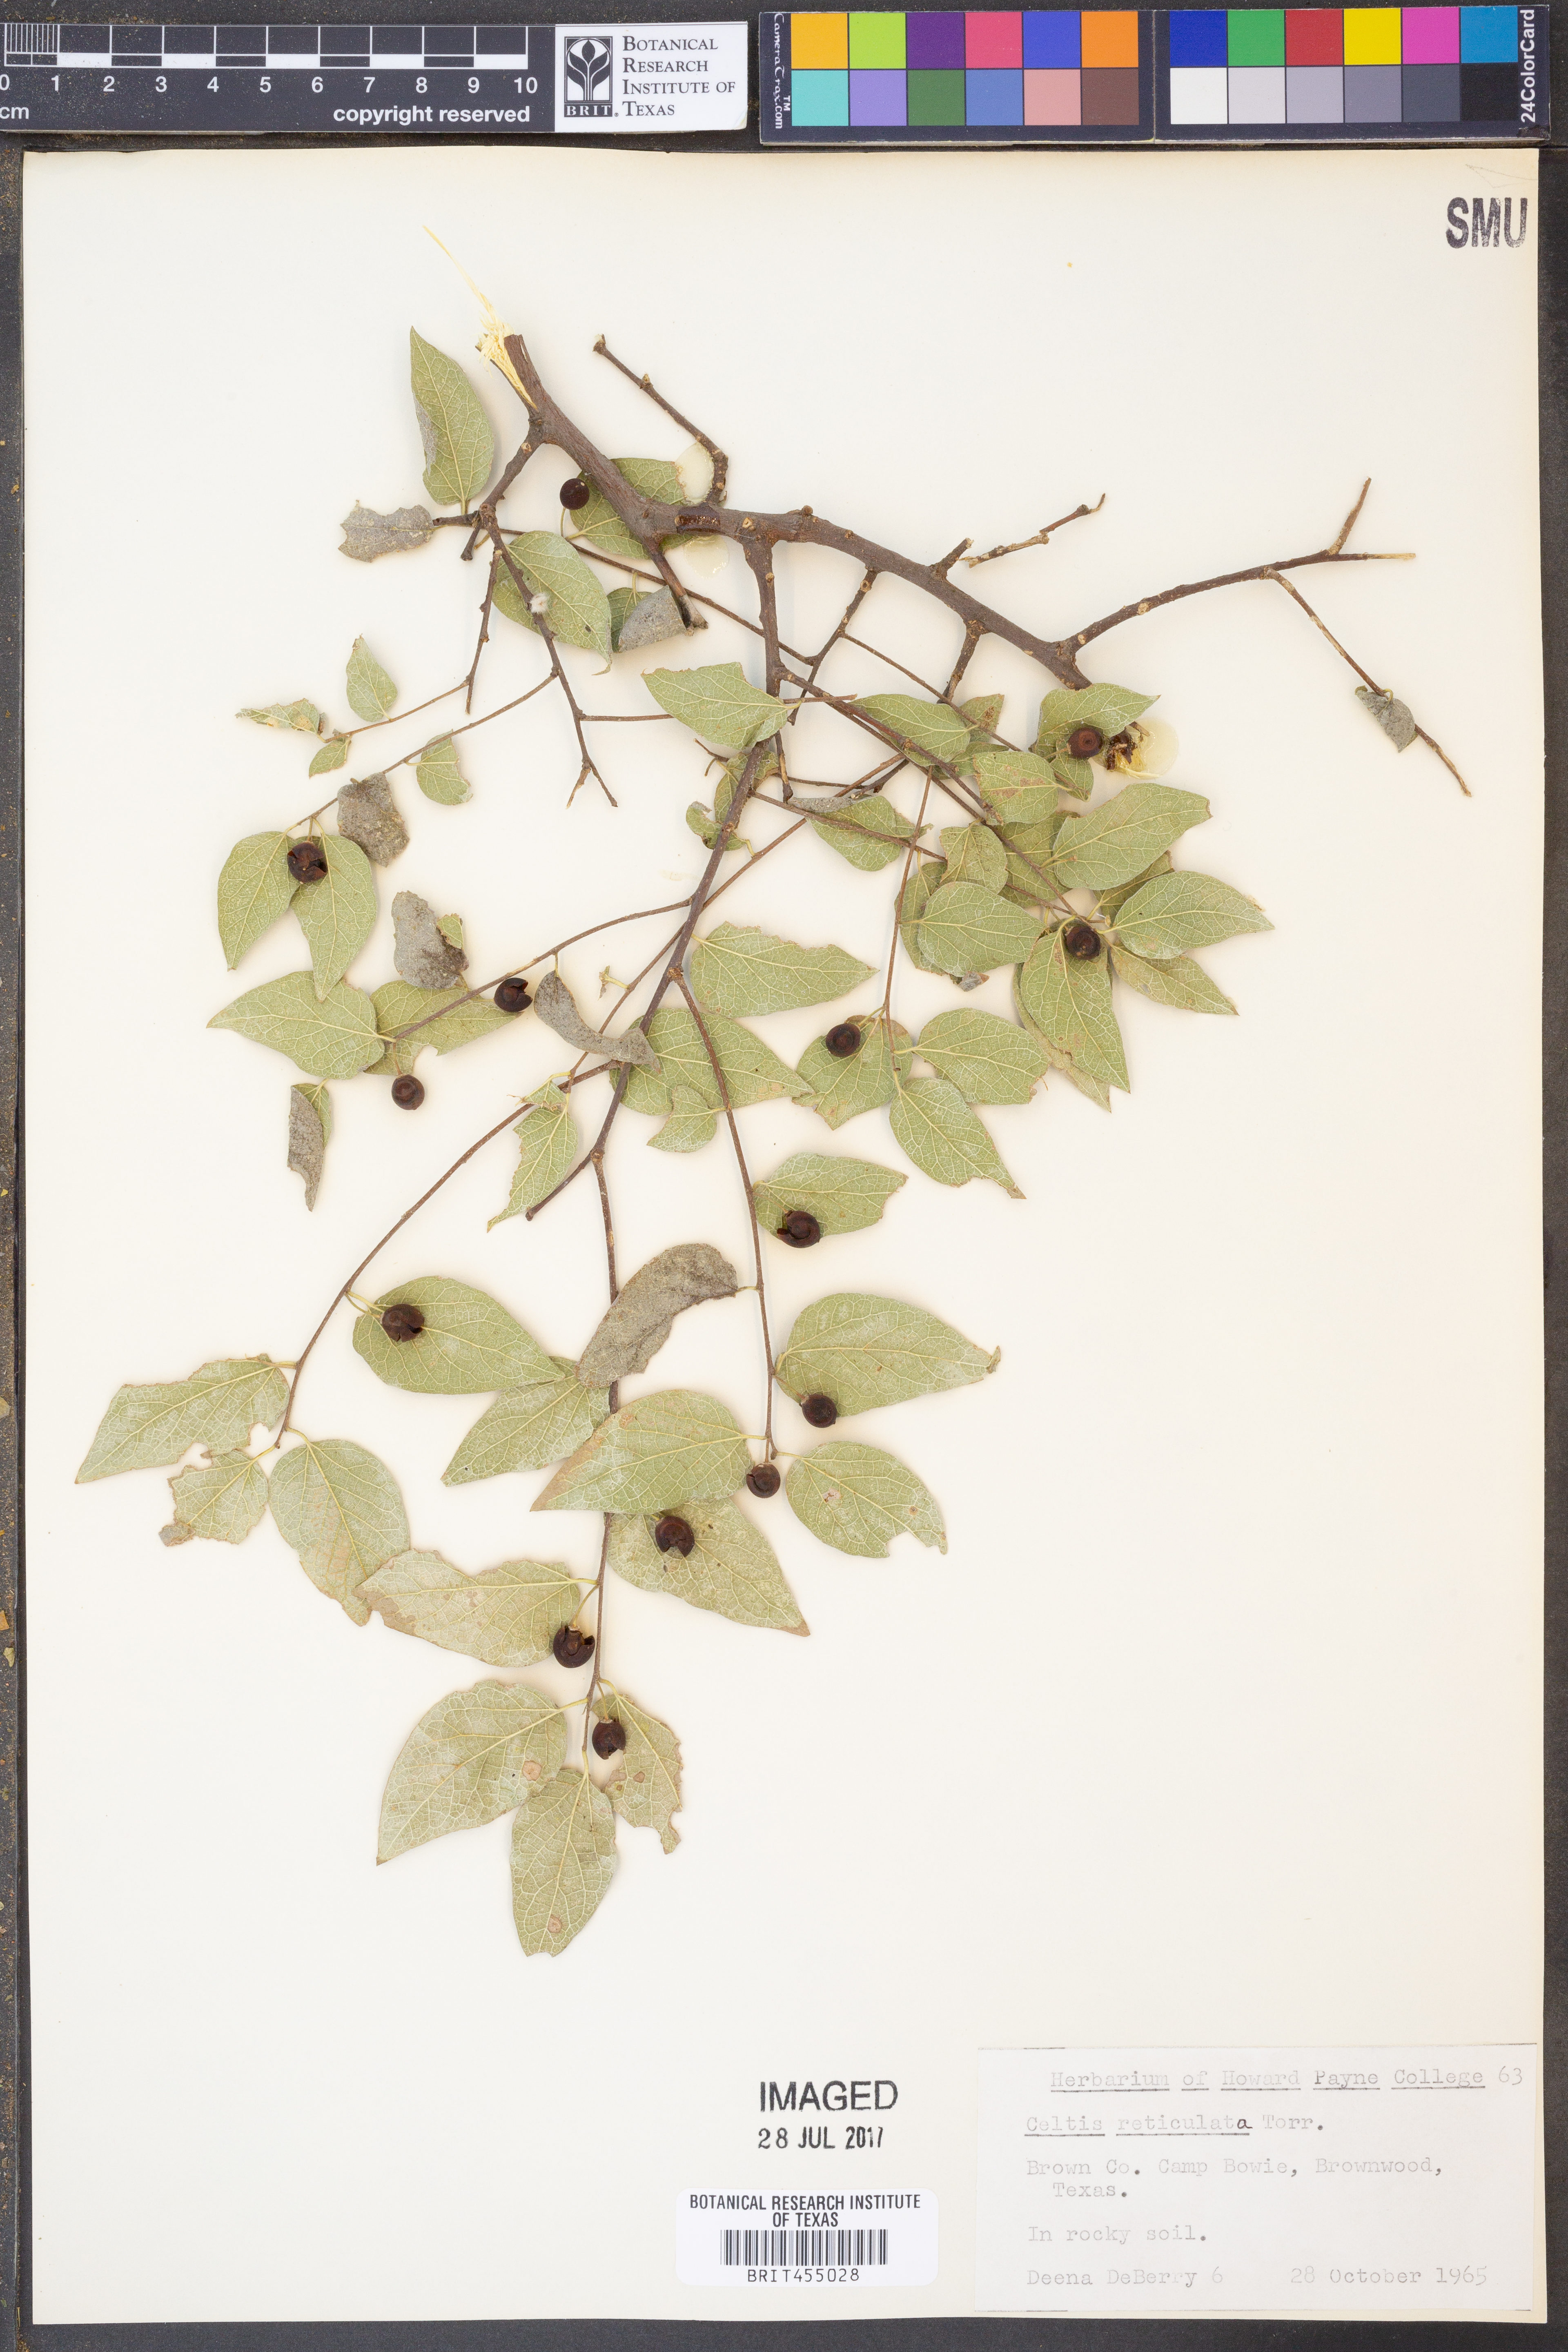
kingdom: Plantae
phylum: Tracheophyta
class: Magnoliopsida
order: Rosales
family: Cannabaceae
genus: Celtis
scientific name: Celtis reticulata
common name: Netleaf hackberry
